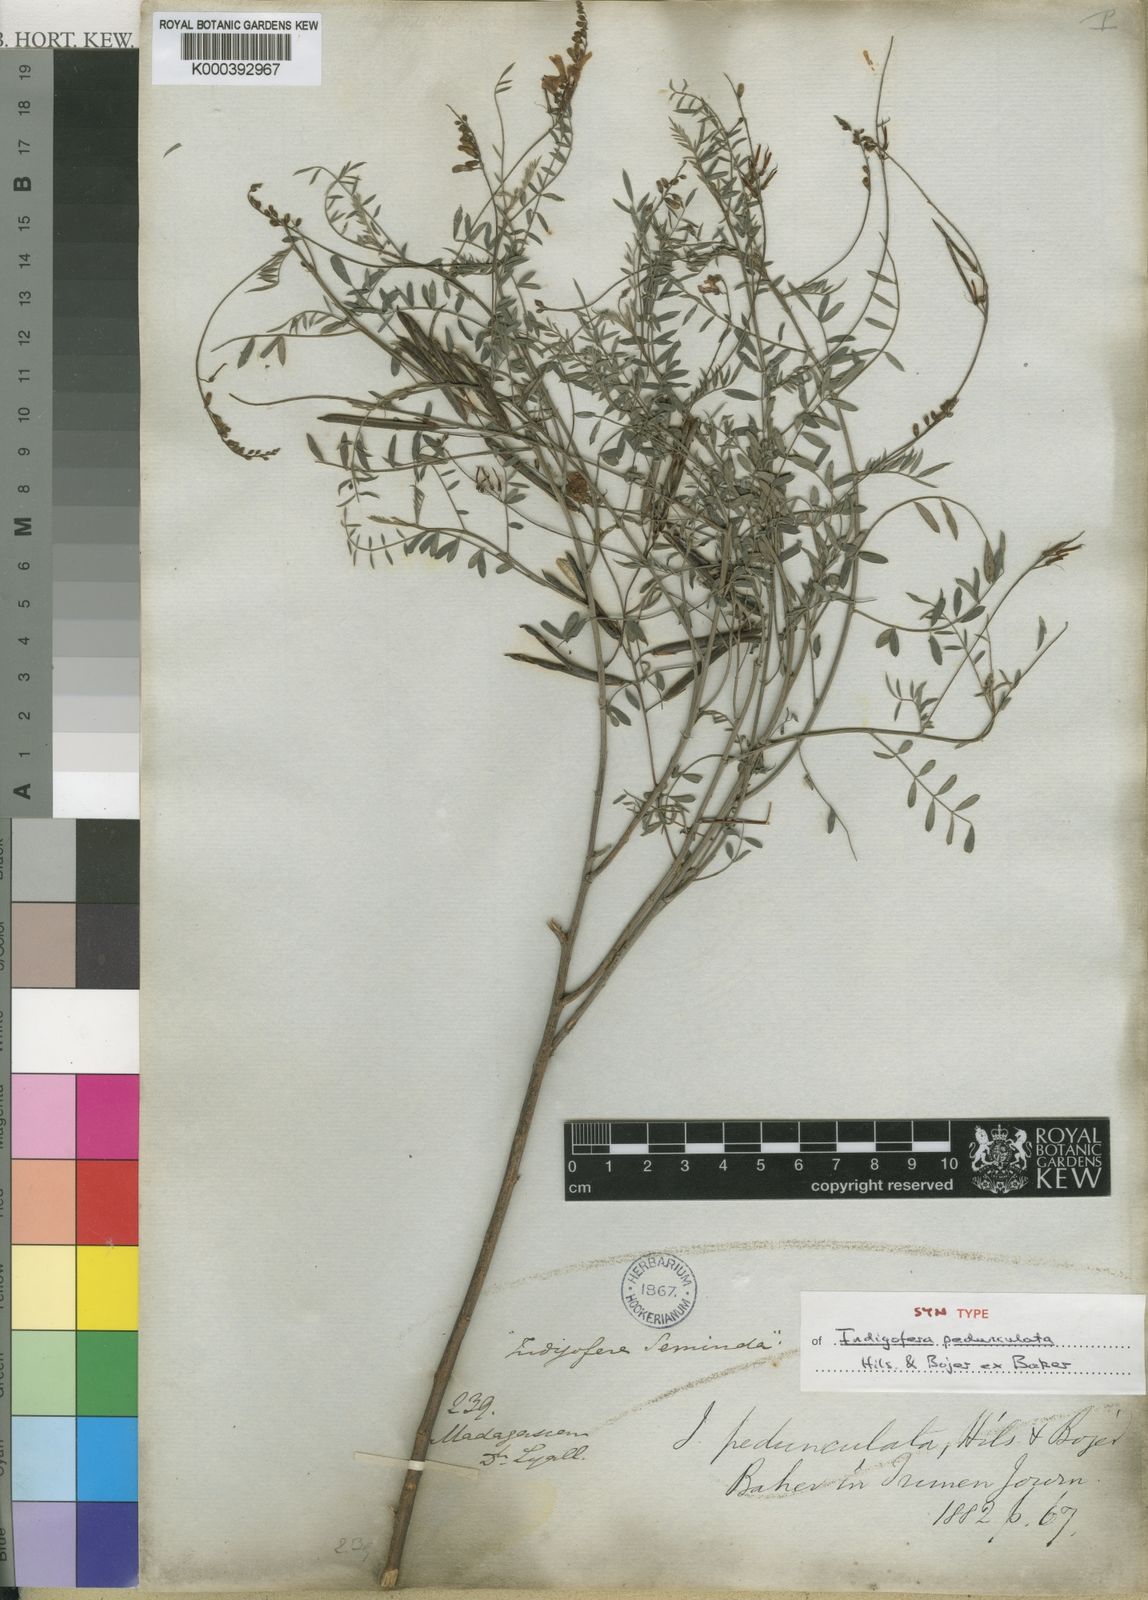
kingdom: Plantae
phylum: Tracheophyta
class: Magnoliopsida
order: Fabales
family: Fabaceae
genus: Indigofera
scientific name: Indigofera pedunculata
